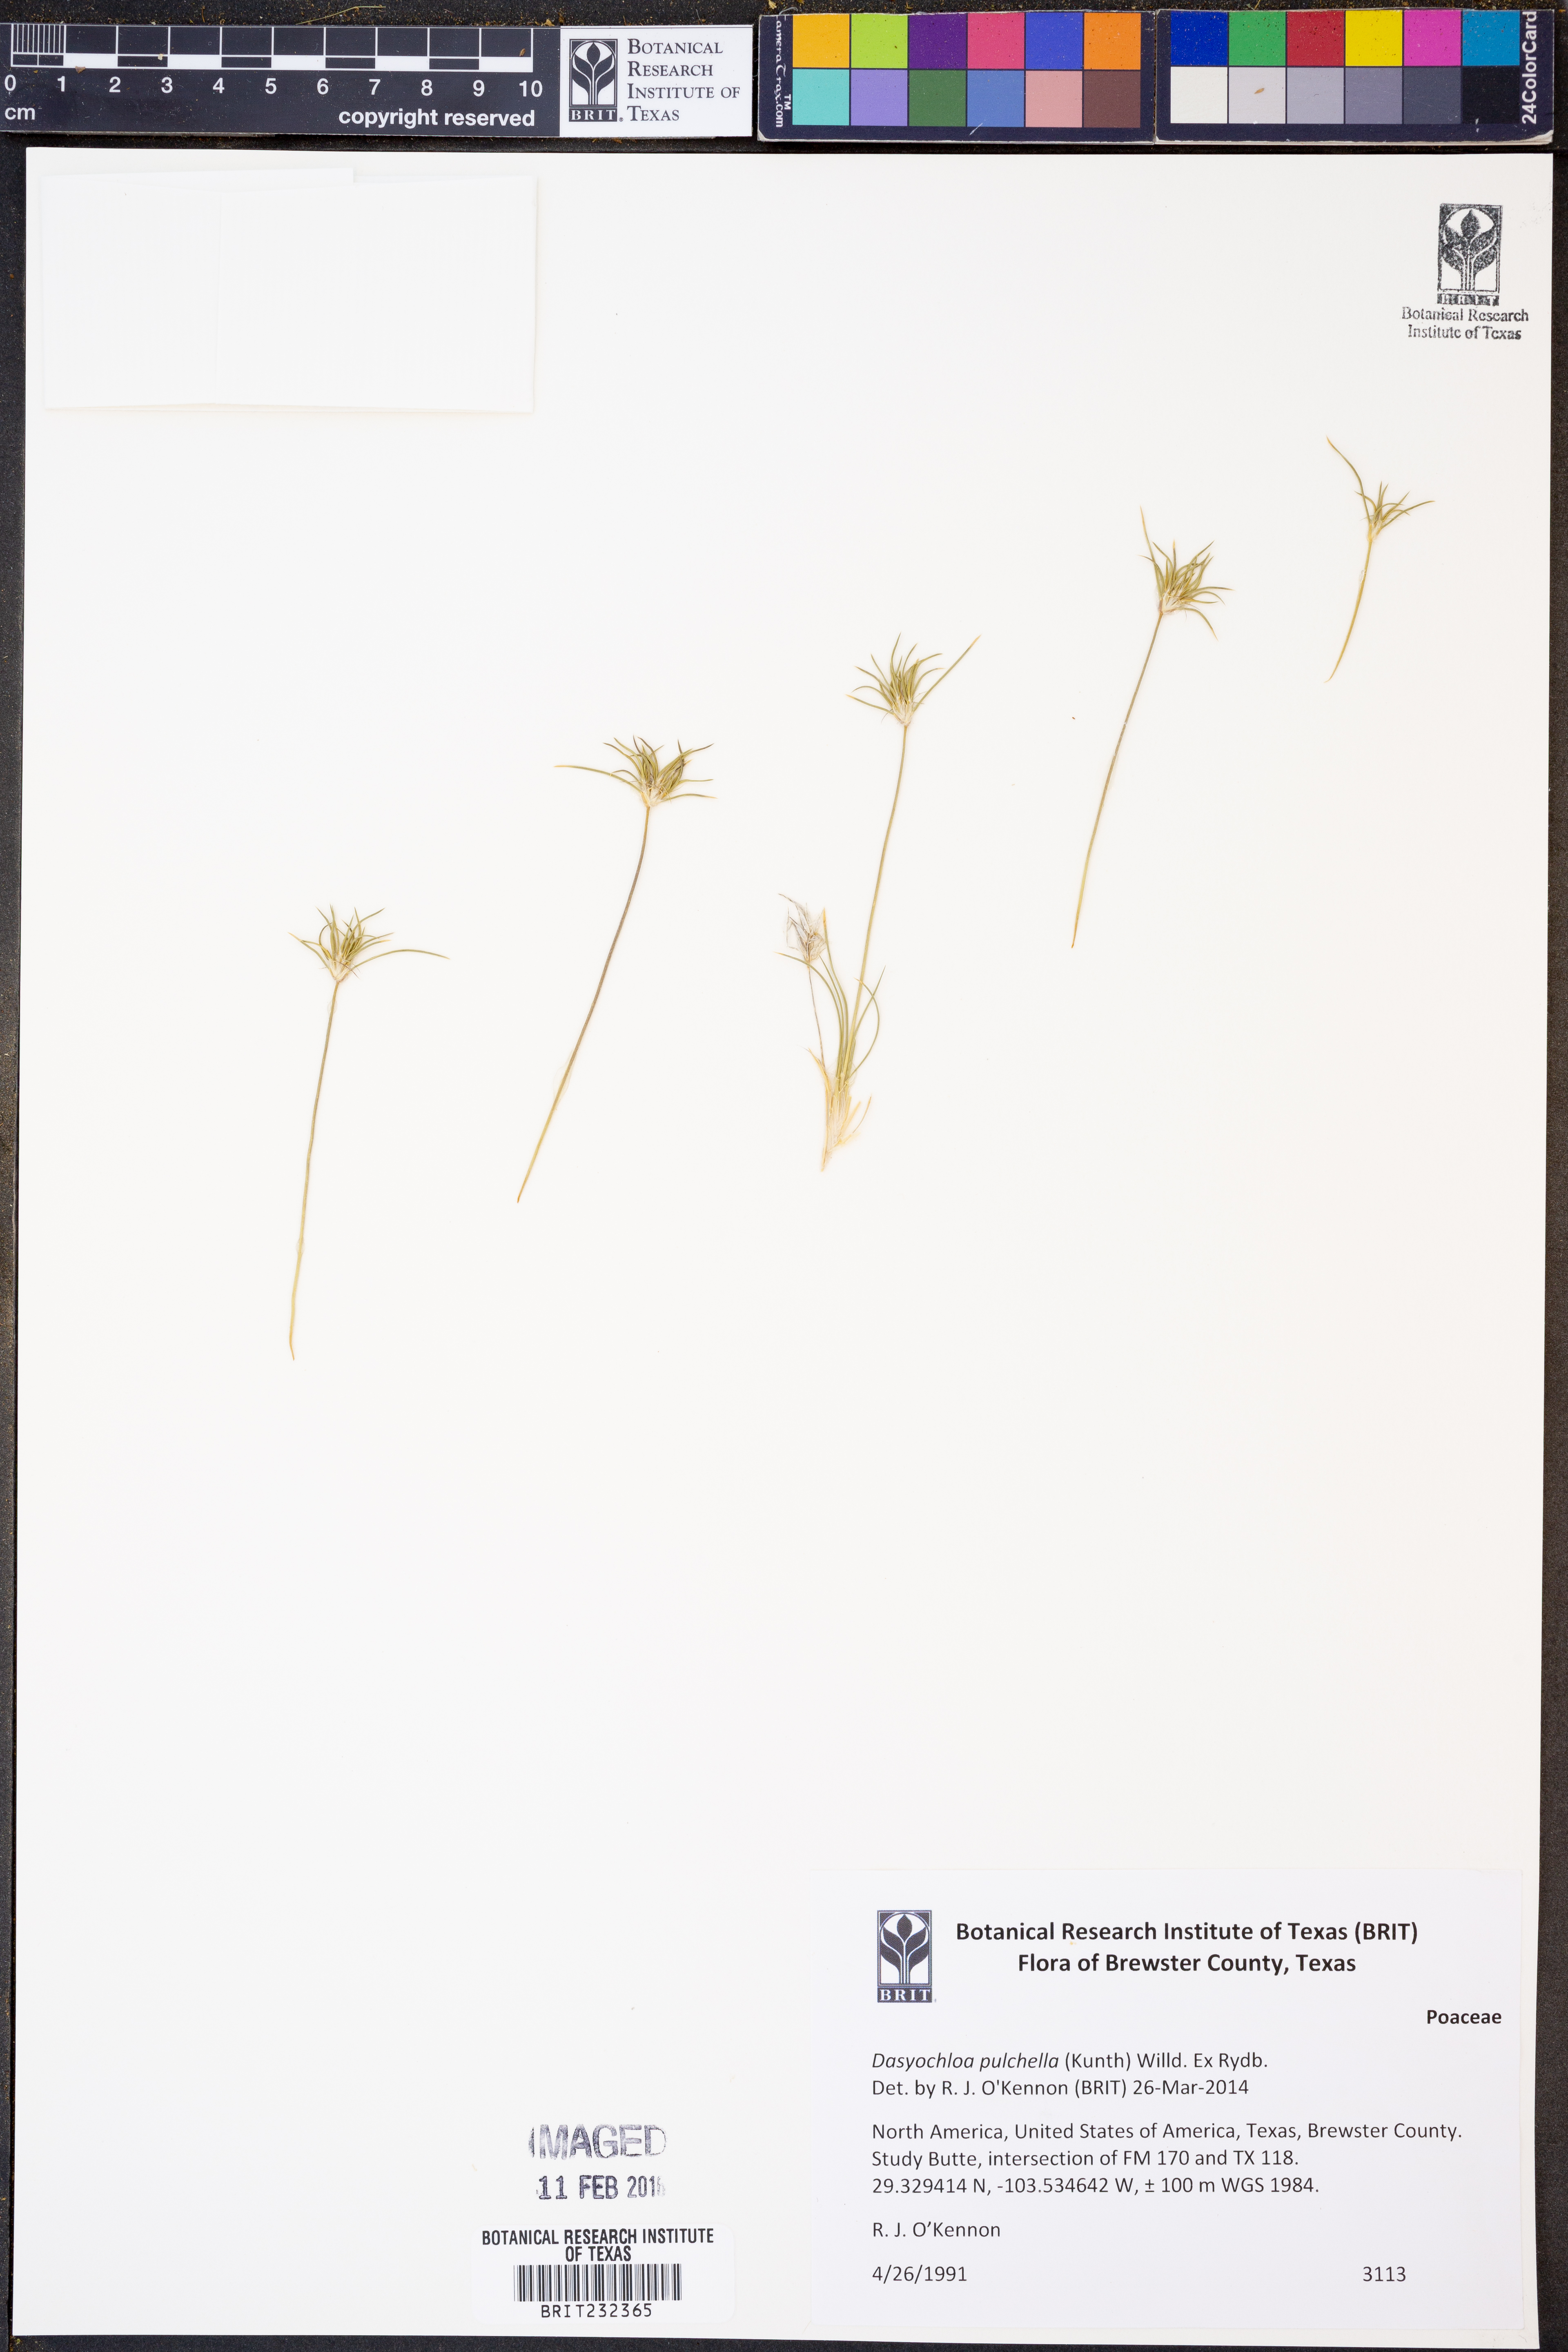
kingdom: Plantae
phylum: Tracheophyta
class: Liliopsida
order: Poales
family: Poaceae
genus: Munroa
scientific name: Munroa pulchella
